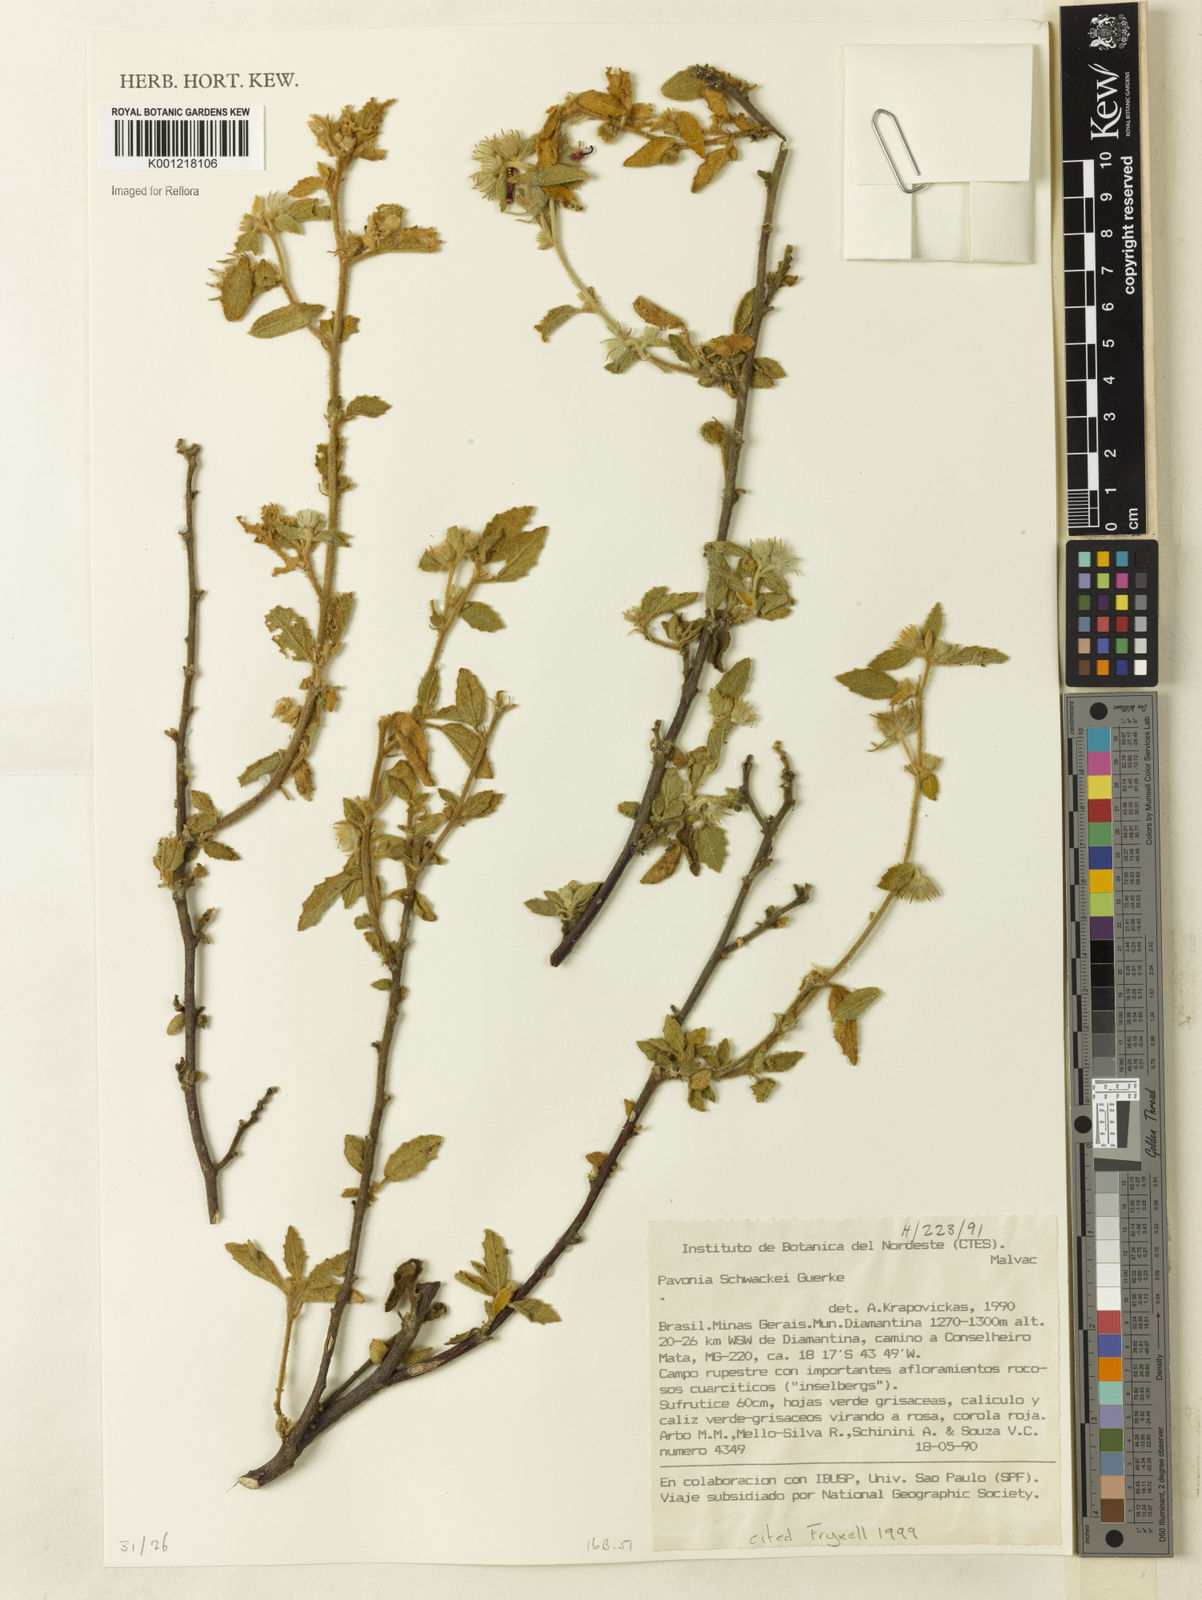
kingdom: Plantae
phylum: Tracheophyta
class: Magnoliopsida
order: Malvales
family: Malvaceae
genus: Pavonia
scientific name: Pavonia
